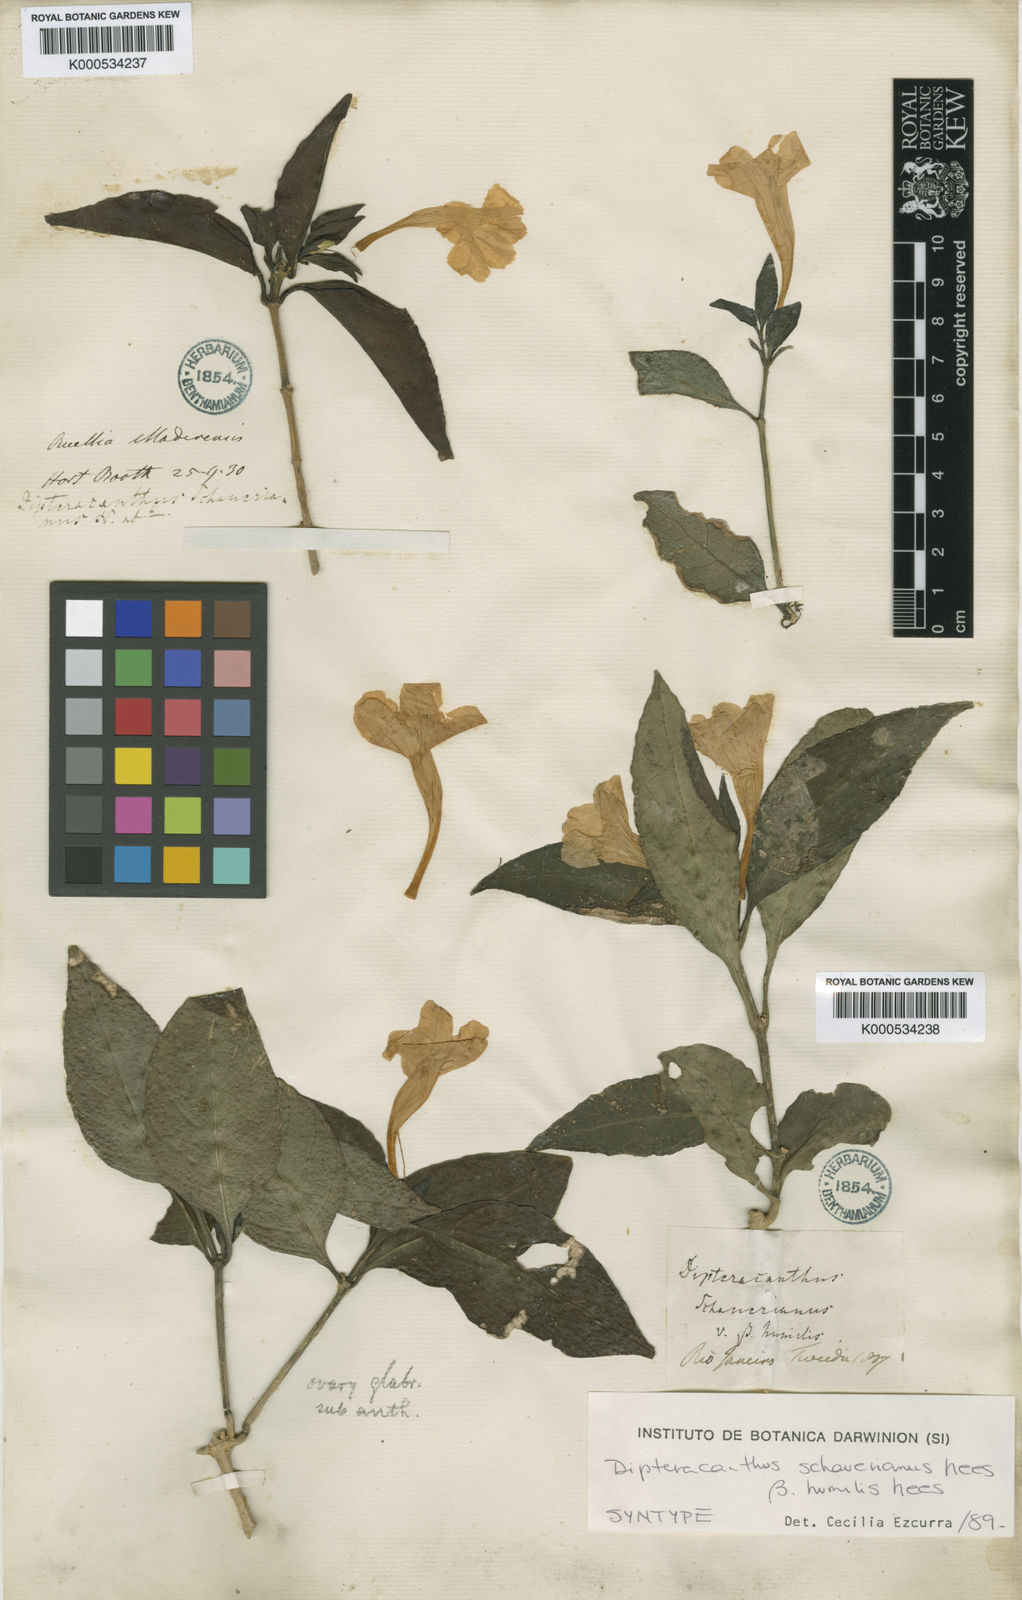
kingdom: Plantae
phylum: Tracheophyta
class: Magnoliopsida
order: Lamiales
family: Acanthaceae
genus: Ruellia
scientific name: Ruellia
